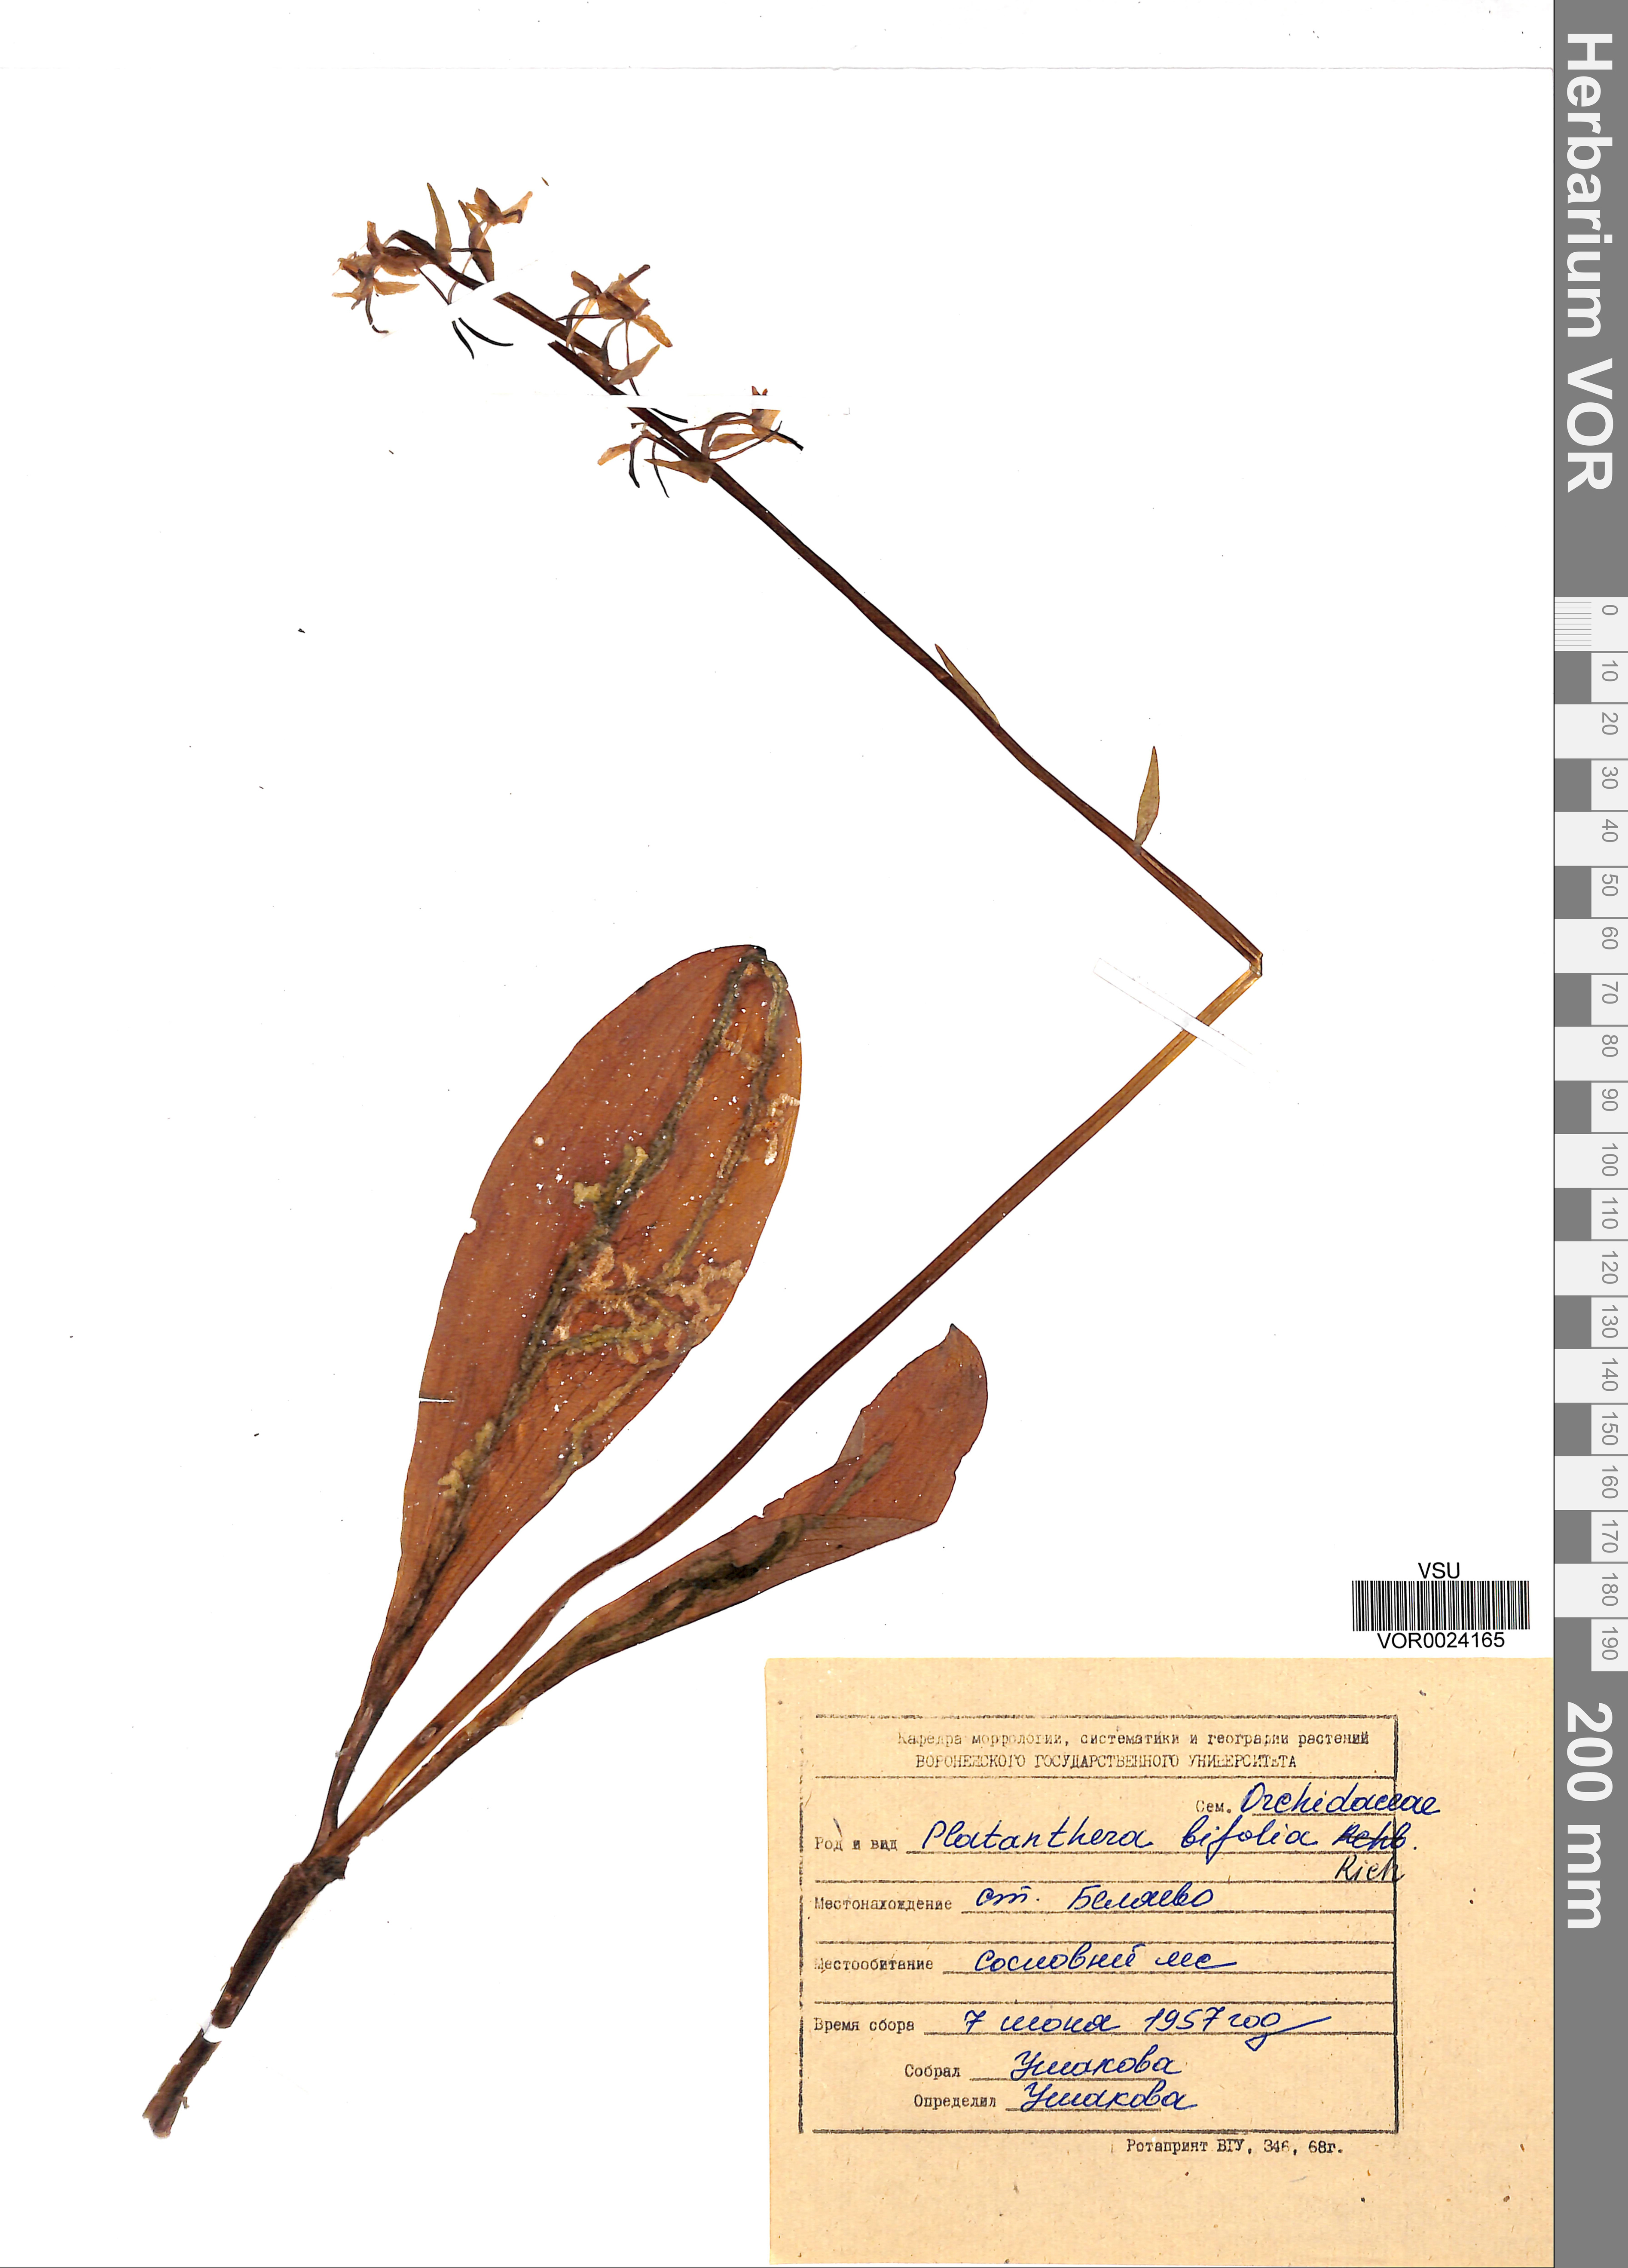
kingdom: Plantae
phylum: Tracheophyta
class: Liliopsida
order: Asparagales
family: Orchidaceae
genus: Platanthera
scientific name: Platanthera bifolia
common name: Lesser butterfly-orchid
